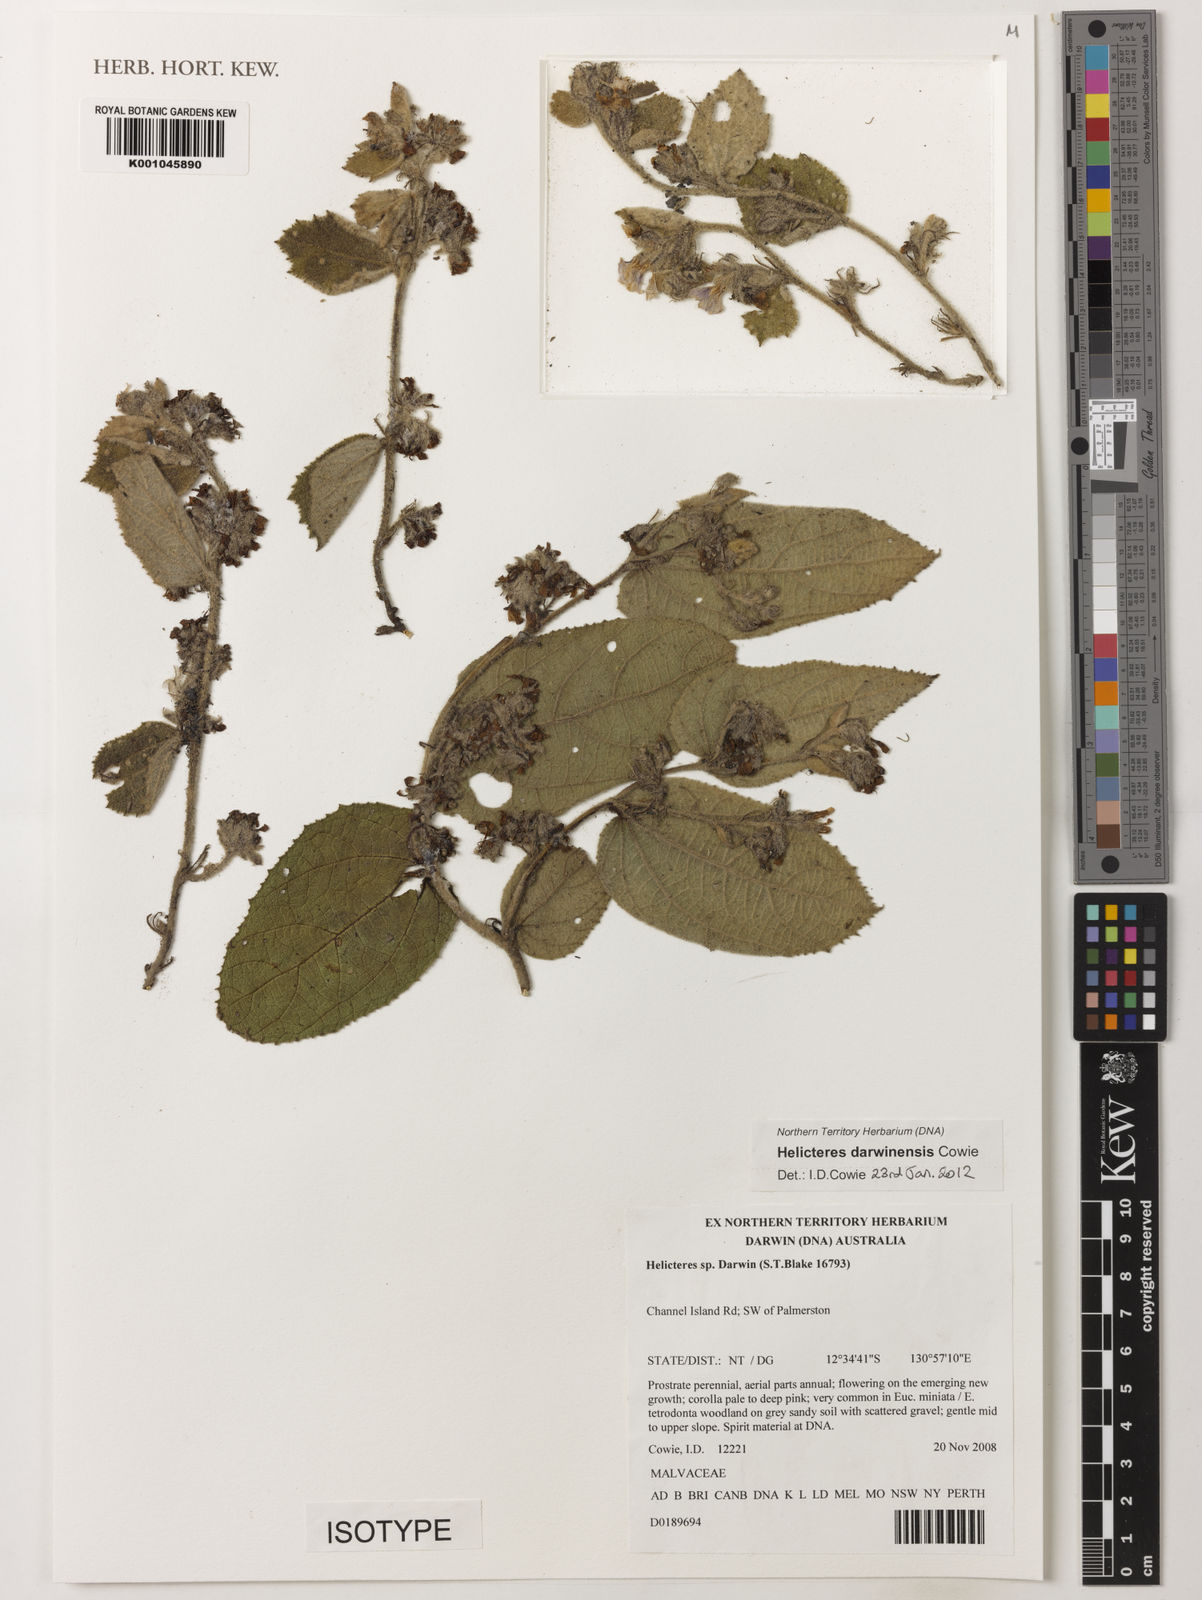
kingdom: Plantae
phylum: Tracheophyta
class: Magnoliopsida
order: Malvales
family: Malvaceae
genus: Helicteres
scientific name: Helicteres darwinensis
